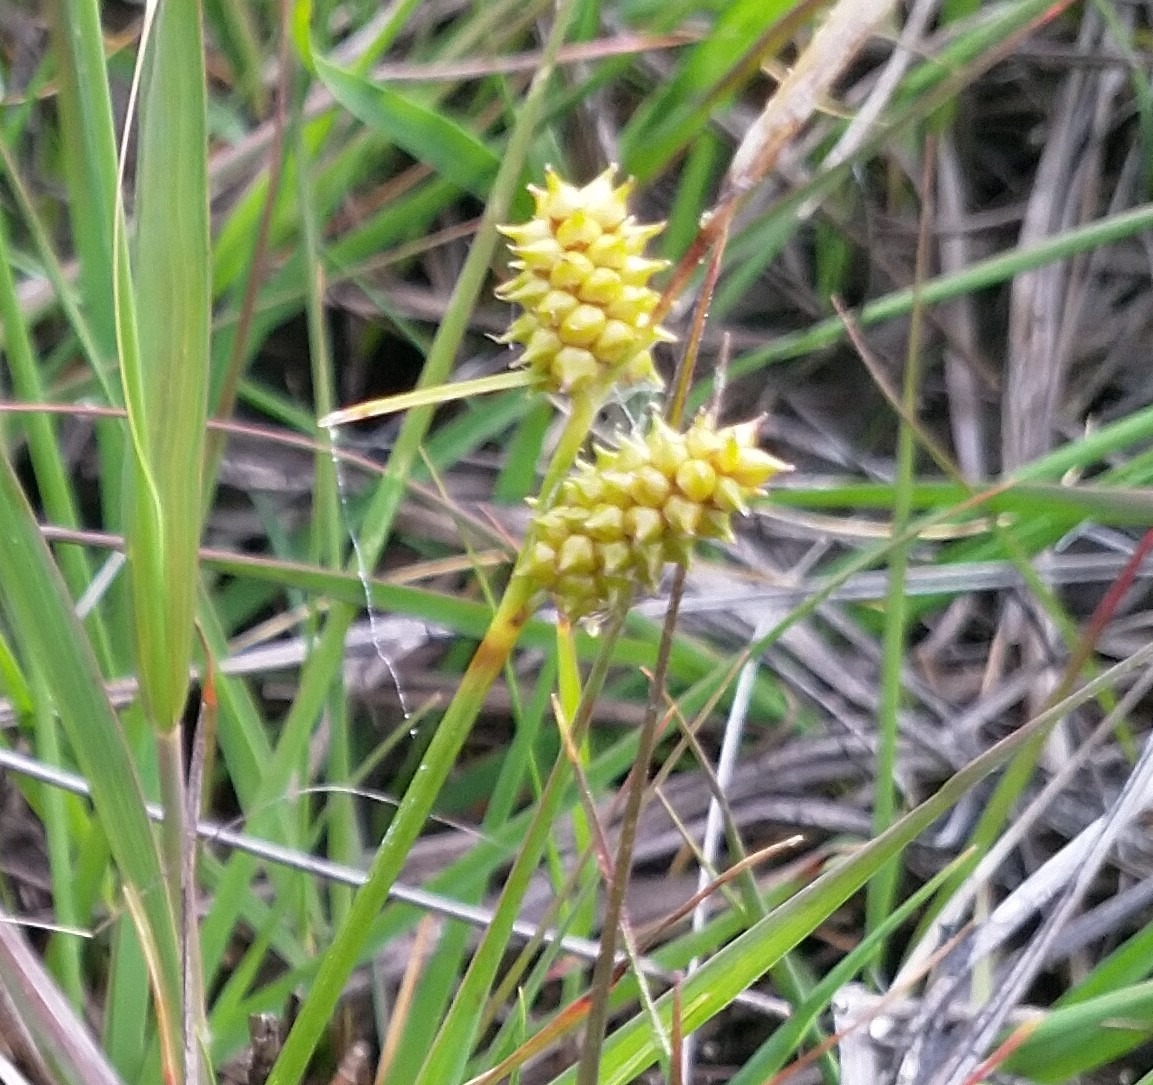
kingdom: Plantae
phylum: Tracheophyta
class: Liliopsida
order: Poales
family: Cyperaceae
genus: Carex
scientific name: Carex oederi
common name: Dværg-star
